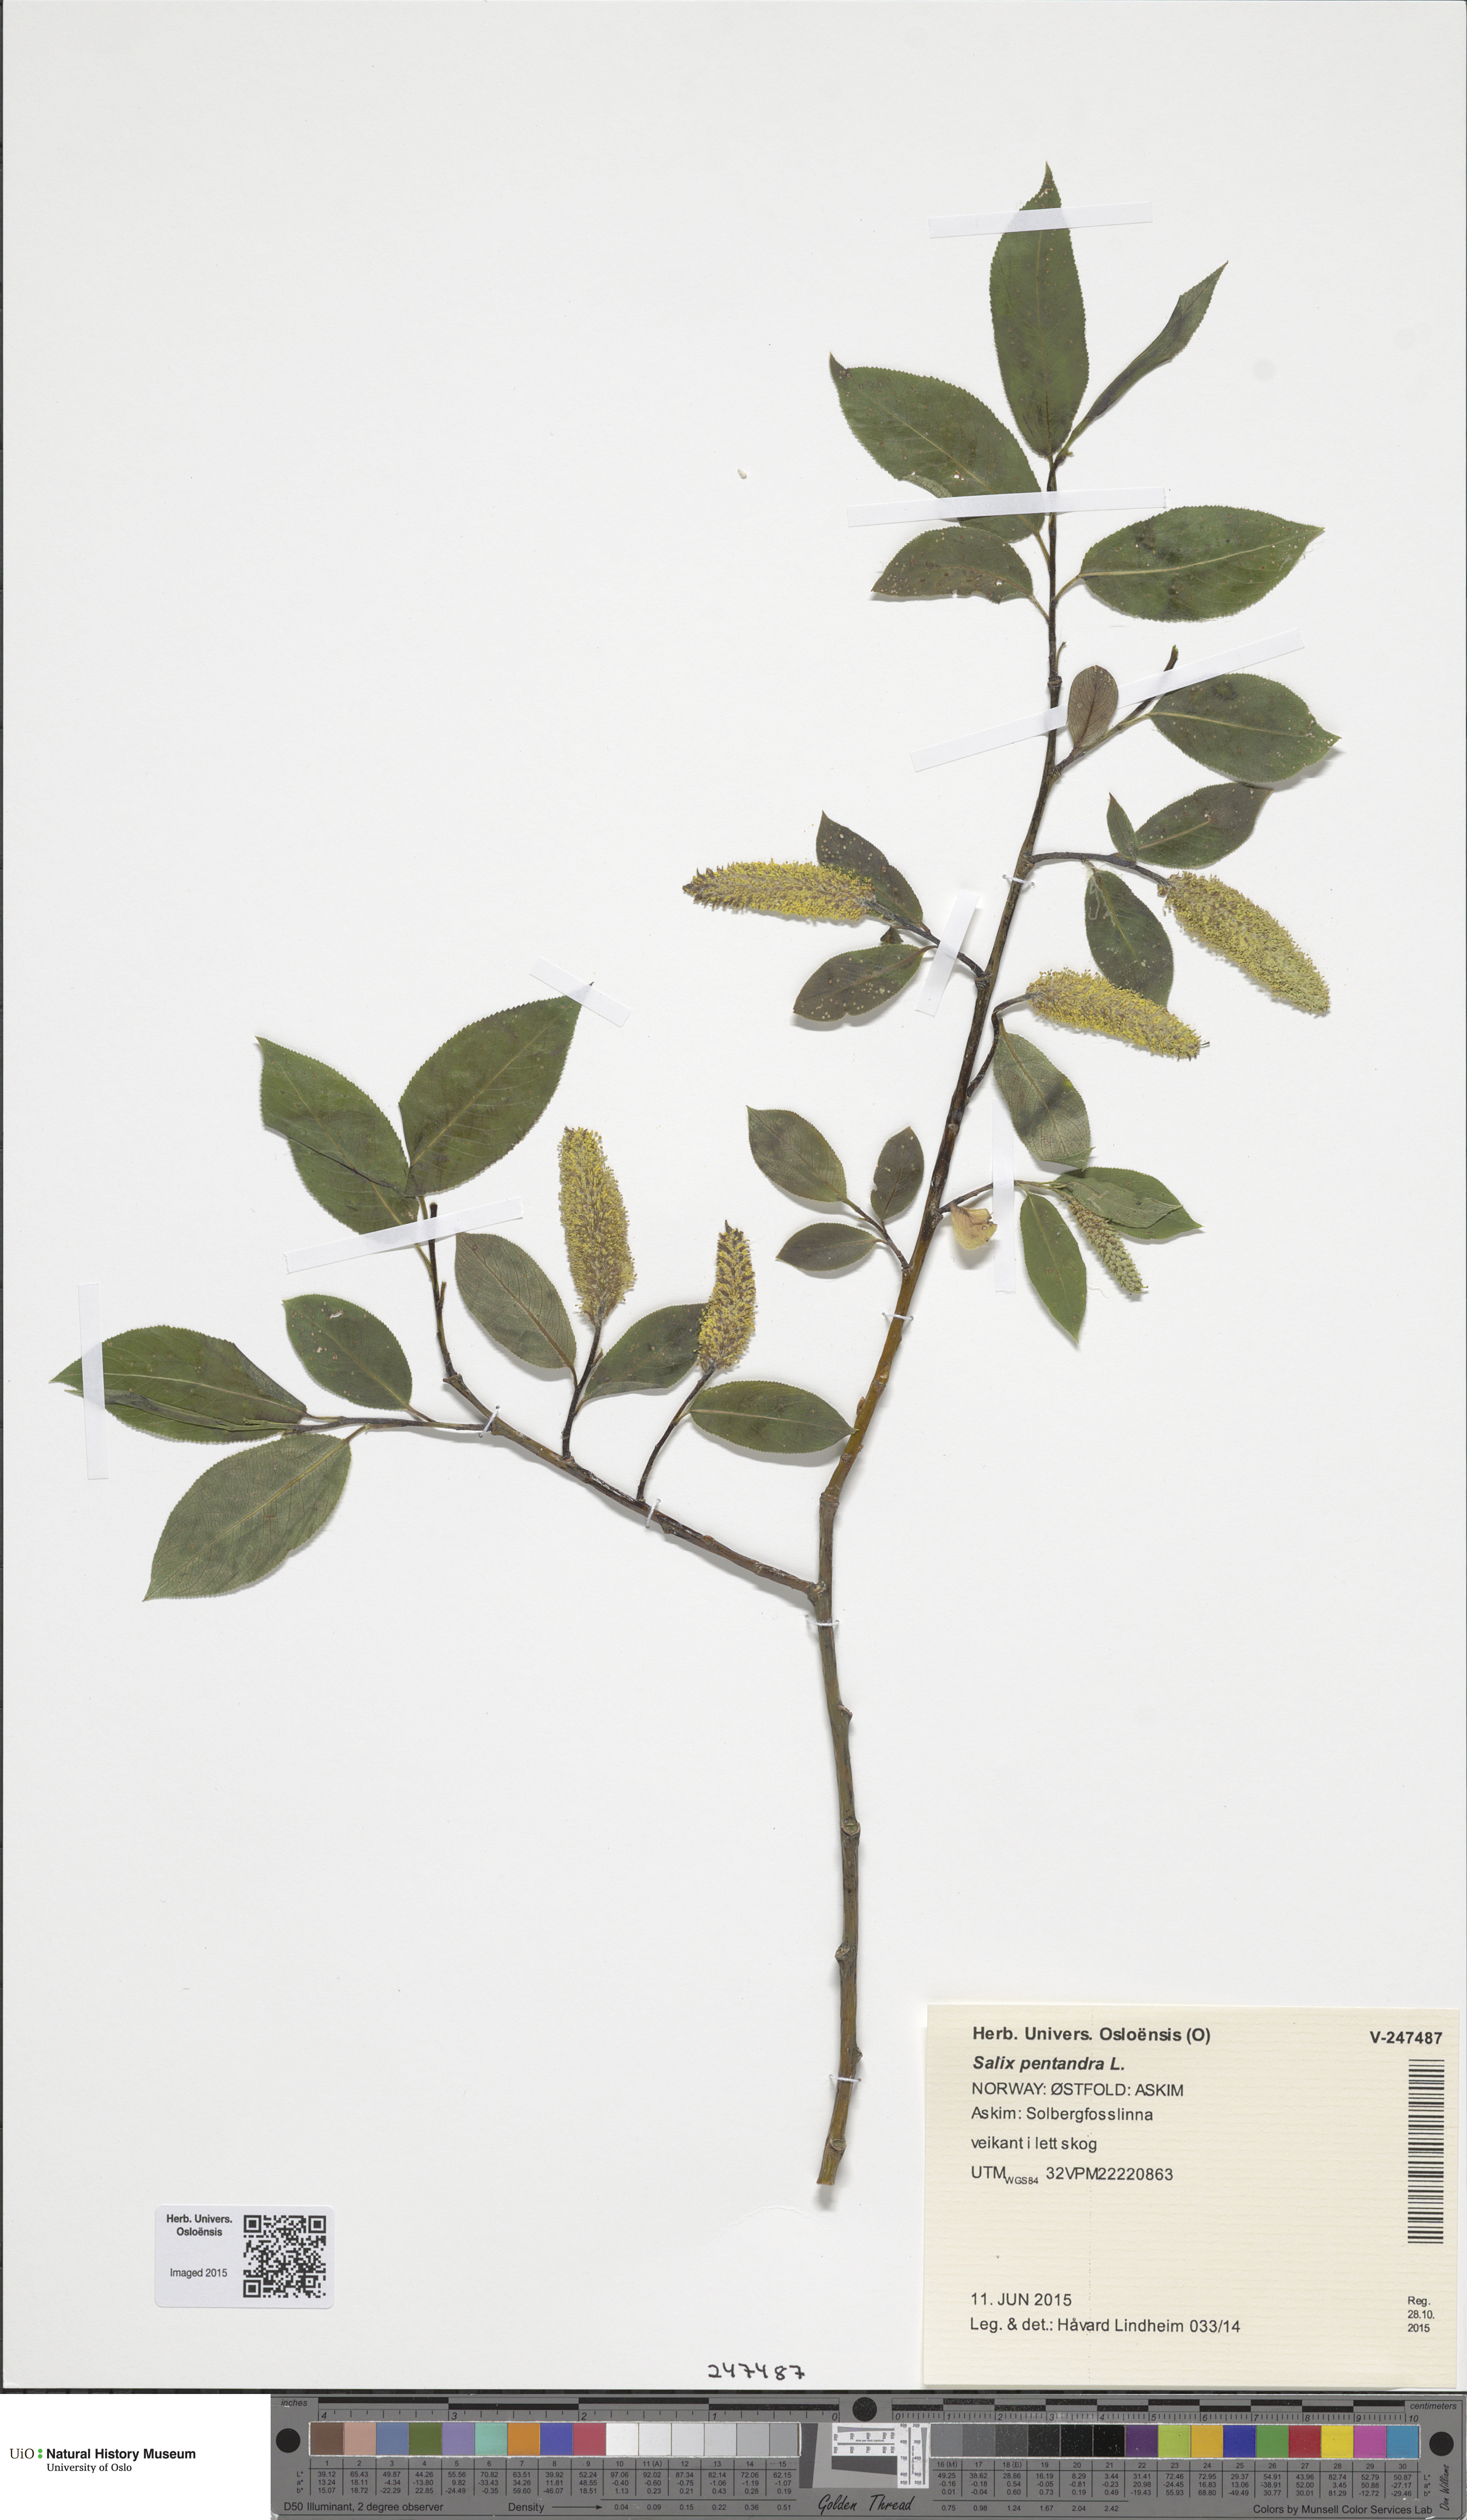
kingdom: Plantae
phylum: Tracheophyta
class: Magnoliopsida
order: Malpighiales
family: Salicaceae
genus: Salix
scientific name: Salix pentandra
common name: Bay willow
